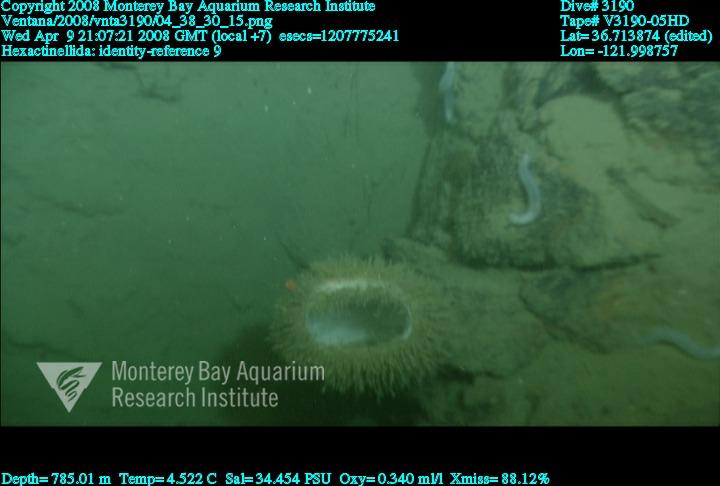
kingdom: Animalia
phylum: Porifera
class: Hexactinellida
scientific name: Hexactinellida
